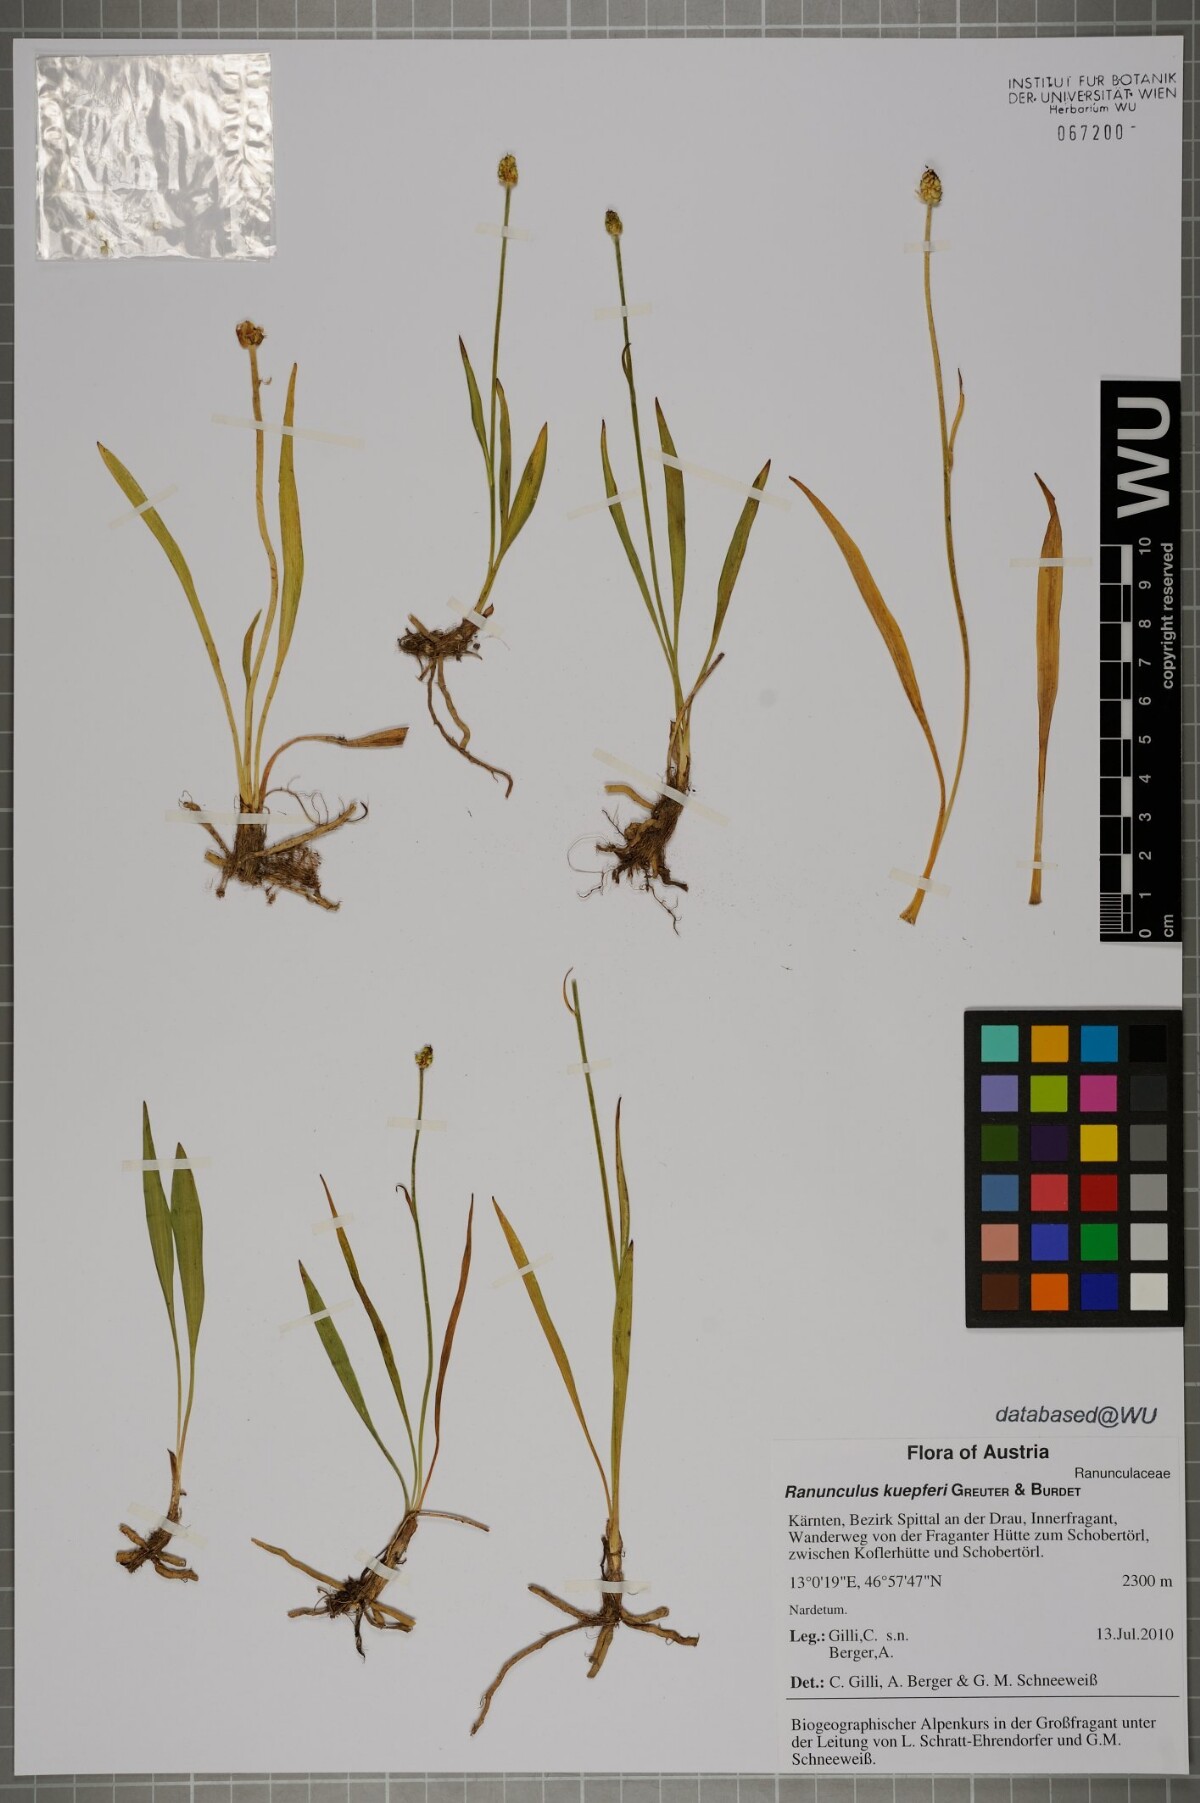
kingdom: Plantae
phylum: Tracheophyta
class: Magnoliopsida
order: Ranunculales
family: Ranunculaceae
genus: Ranunculus
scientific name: Ranunculus kuepferi
